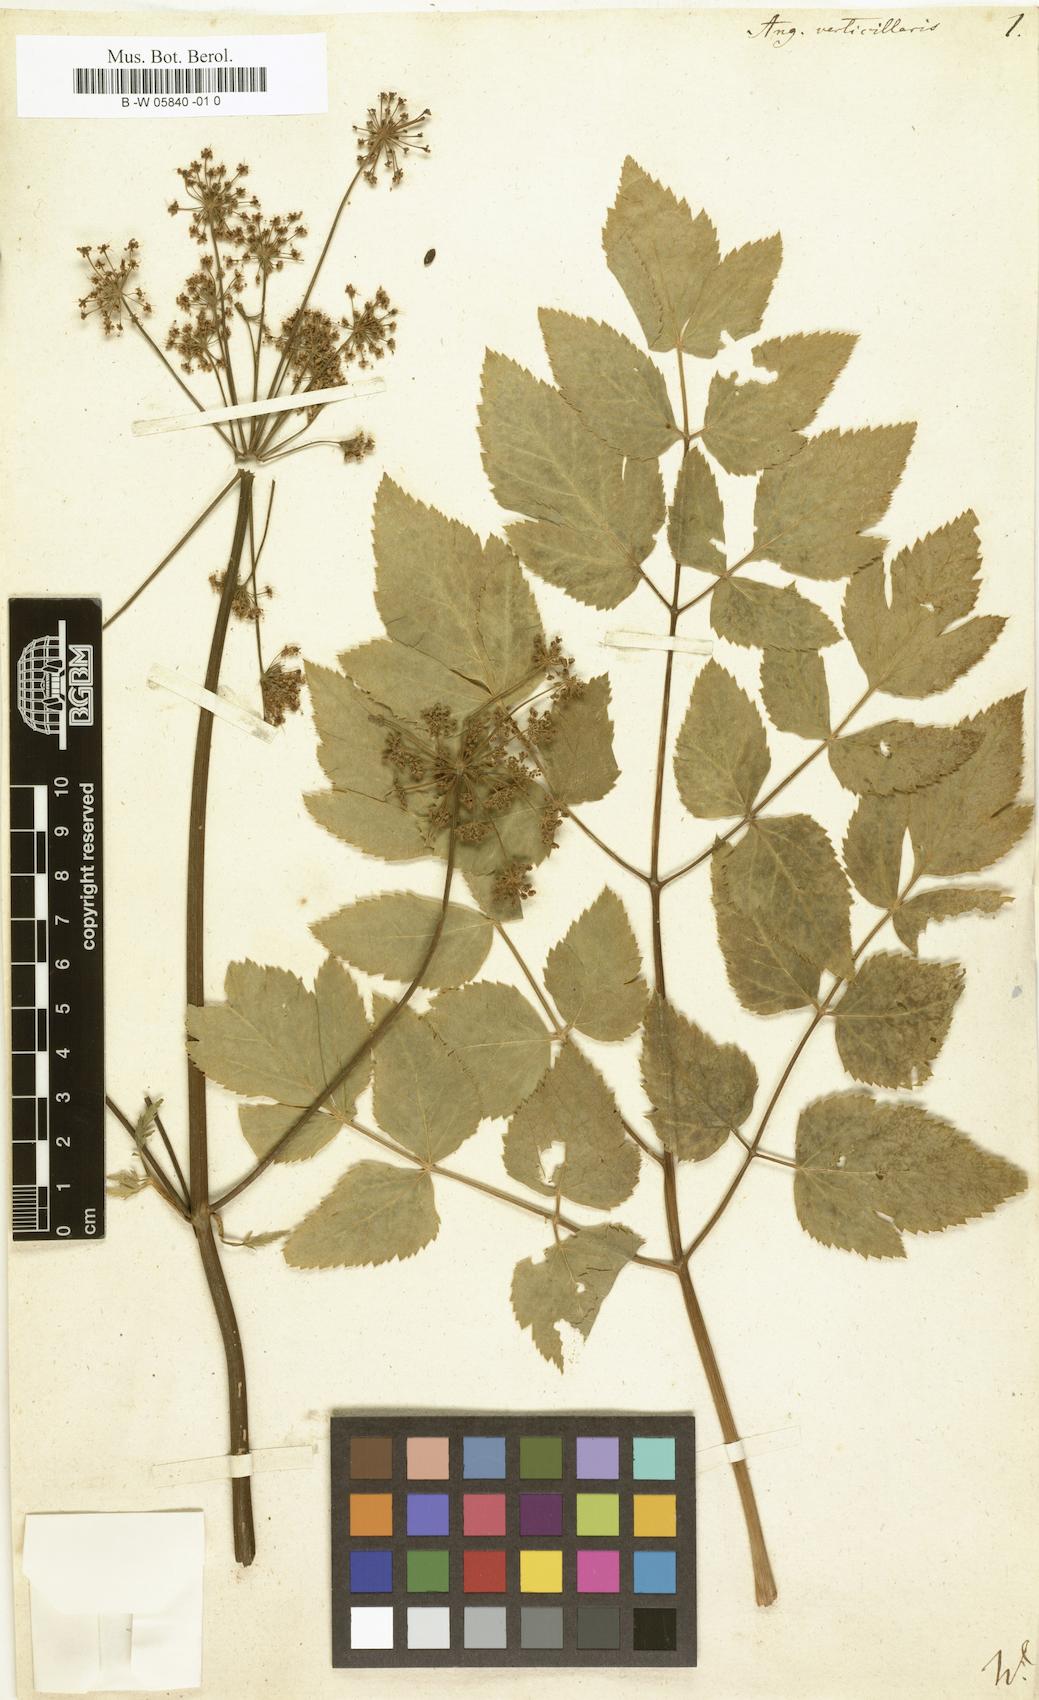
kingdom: Plantae
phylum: Tracheophyta
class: Magnoliopsida
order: Apiales
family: Apiaceae
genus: Tommasinia
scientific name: Tommasinia altissima
